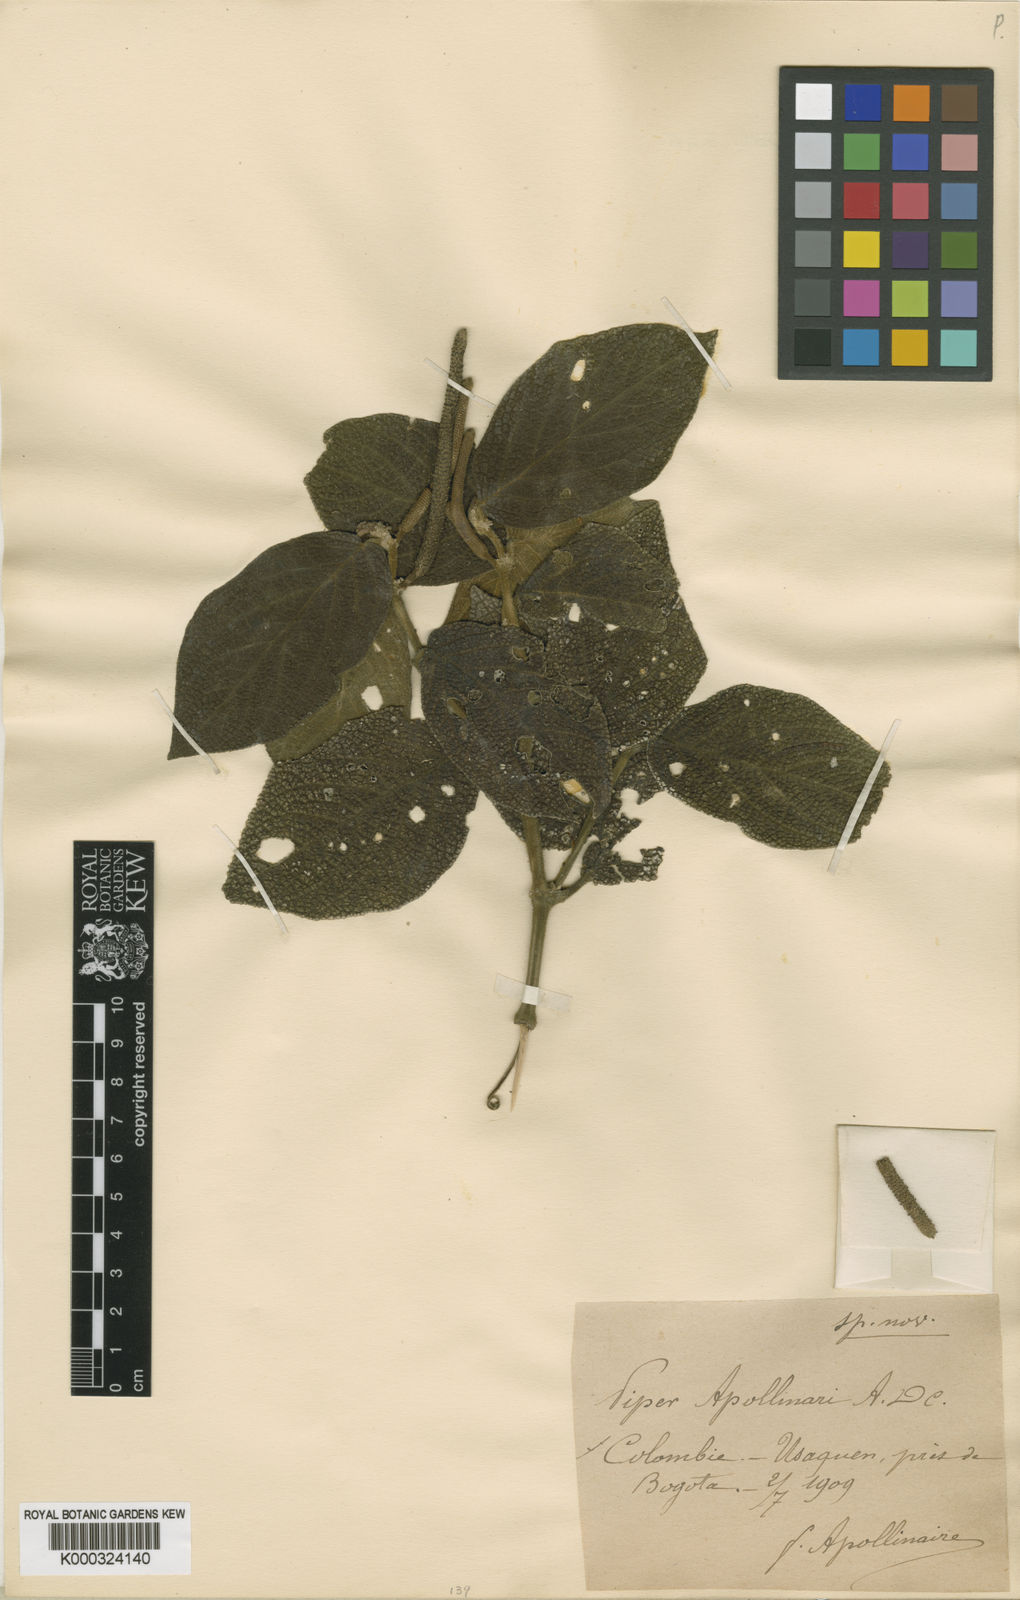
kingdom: Plantae
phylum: Tracheophyta
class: Magnoliopsida
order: Piperales
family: Piperaceae
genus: Piper
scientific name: Piper artanthe
